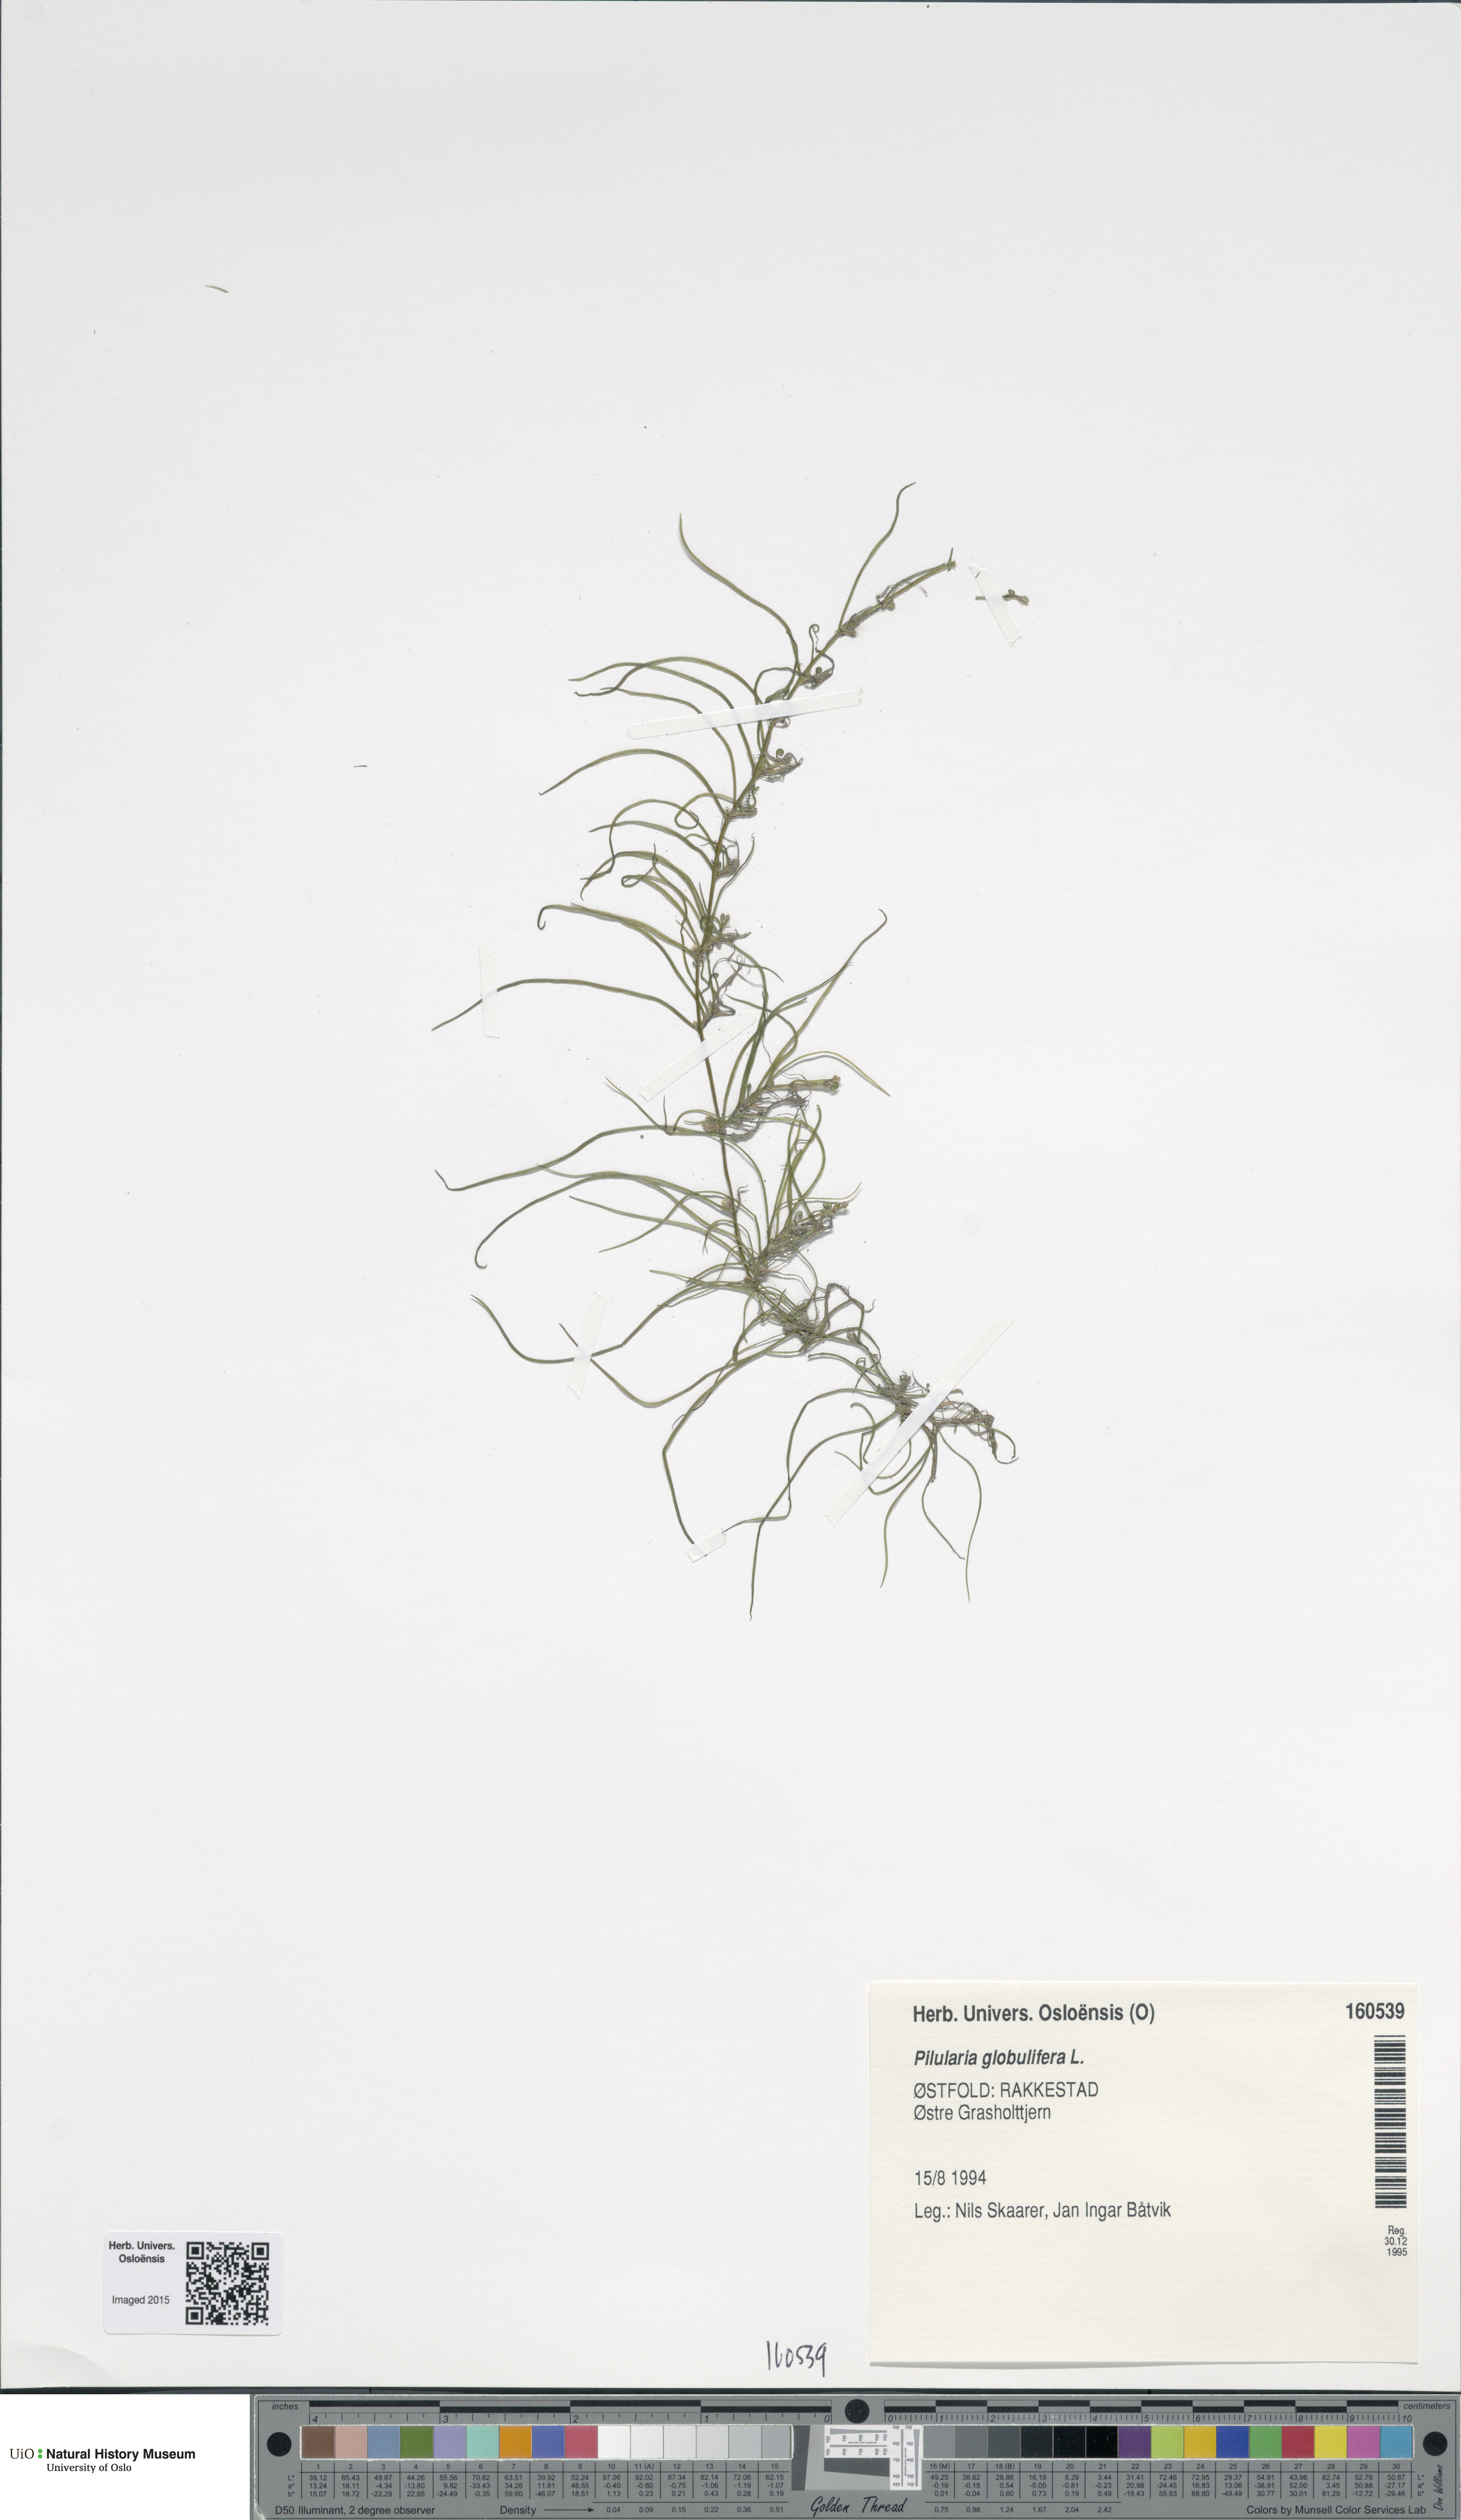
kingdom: Plantae
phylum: Tracheophyta
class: Polypodiopsida
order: Salviniales
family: Marsileaceae
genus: Pilularia
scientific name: Pilularia globulifera
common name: Pillwort
